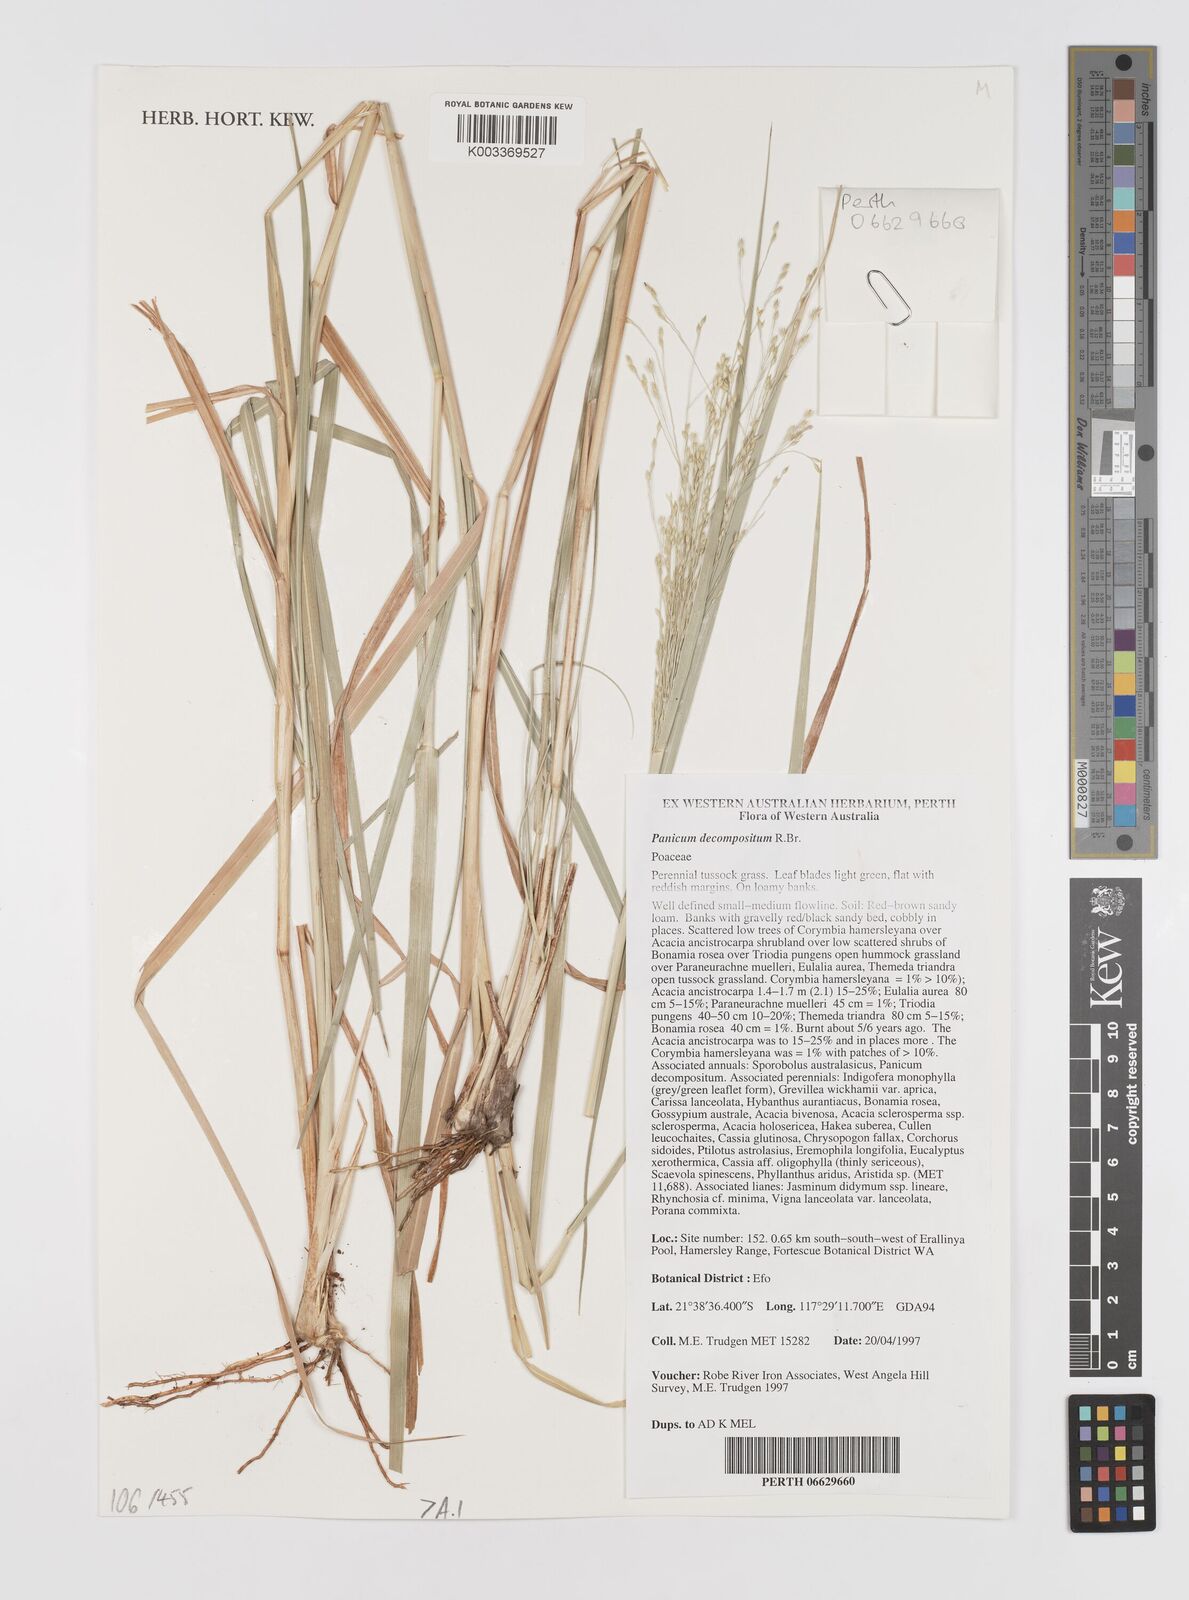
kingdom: Plantae
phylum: Tracheophyta
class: Liliopsida
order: Poales
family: Poaceae
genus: Panicum
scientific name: Panicum decompositum
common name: Australian millet
